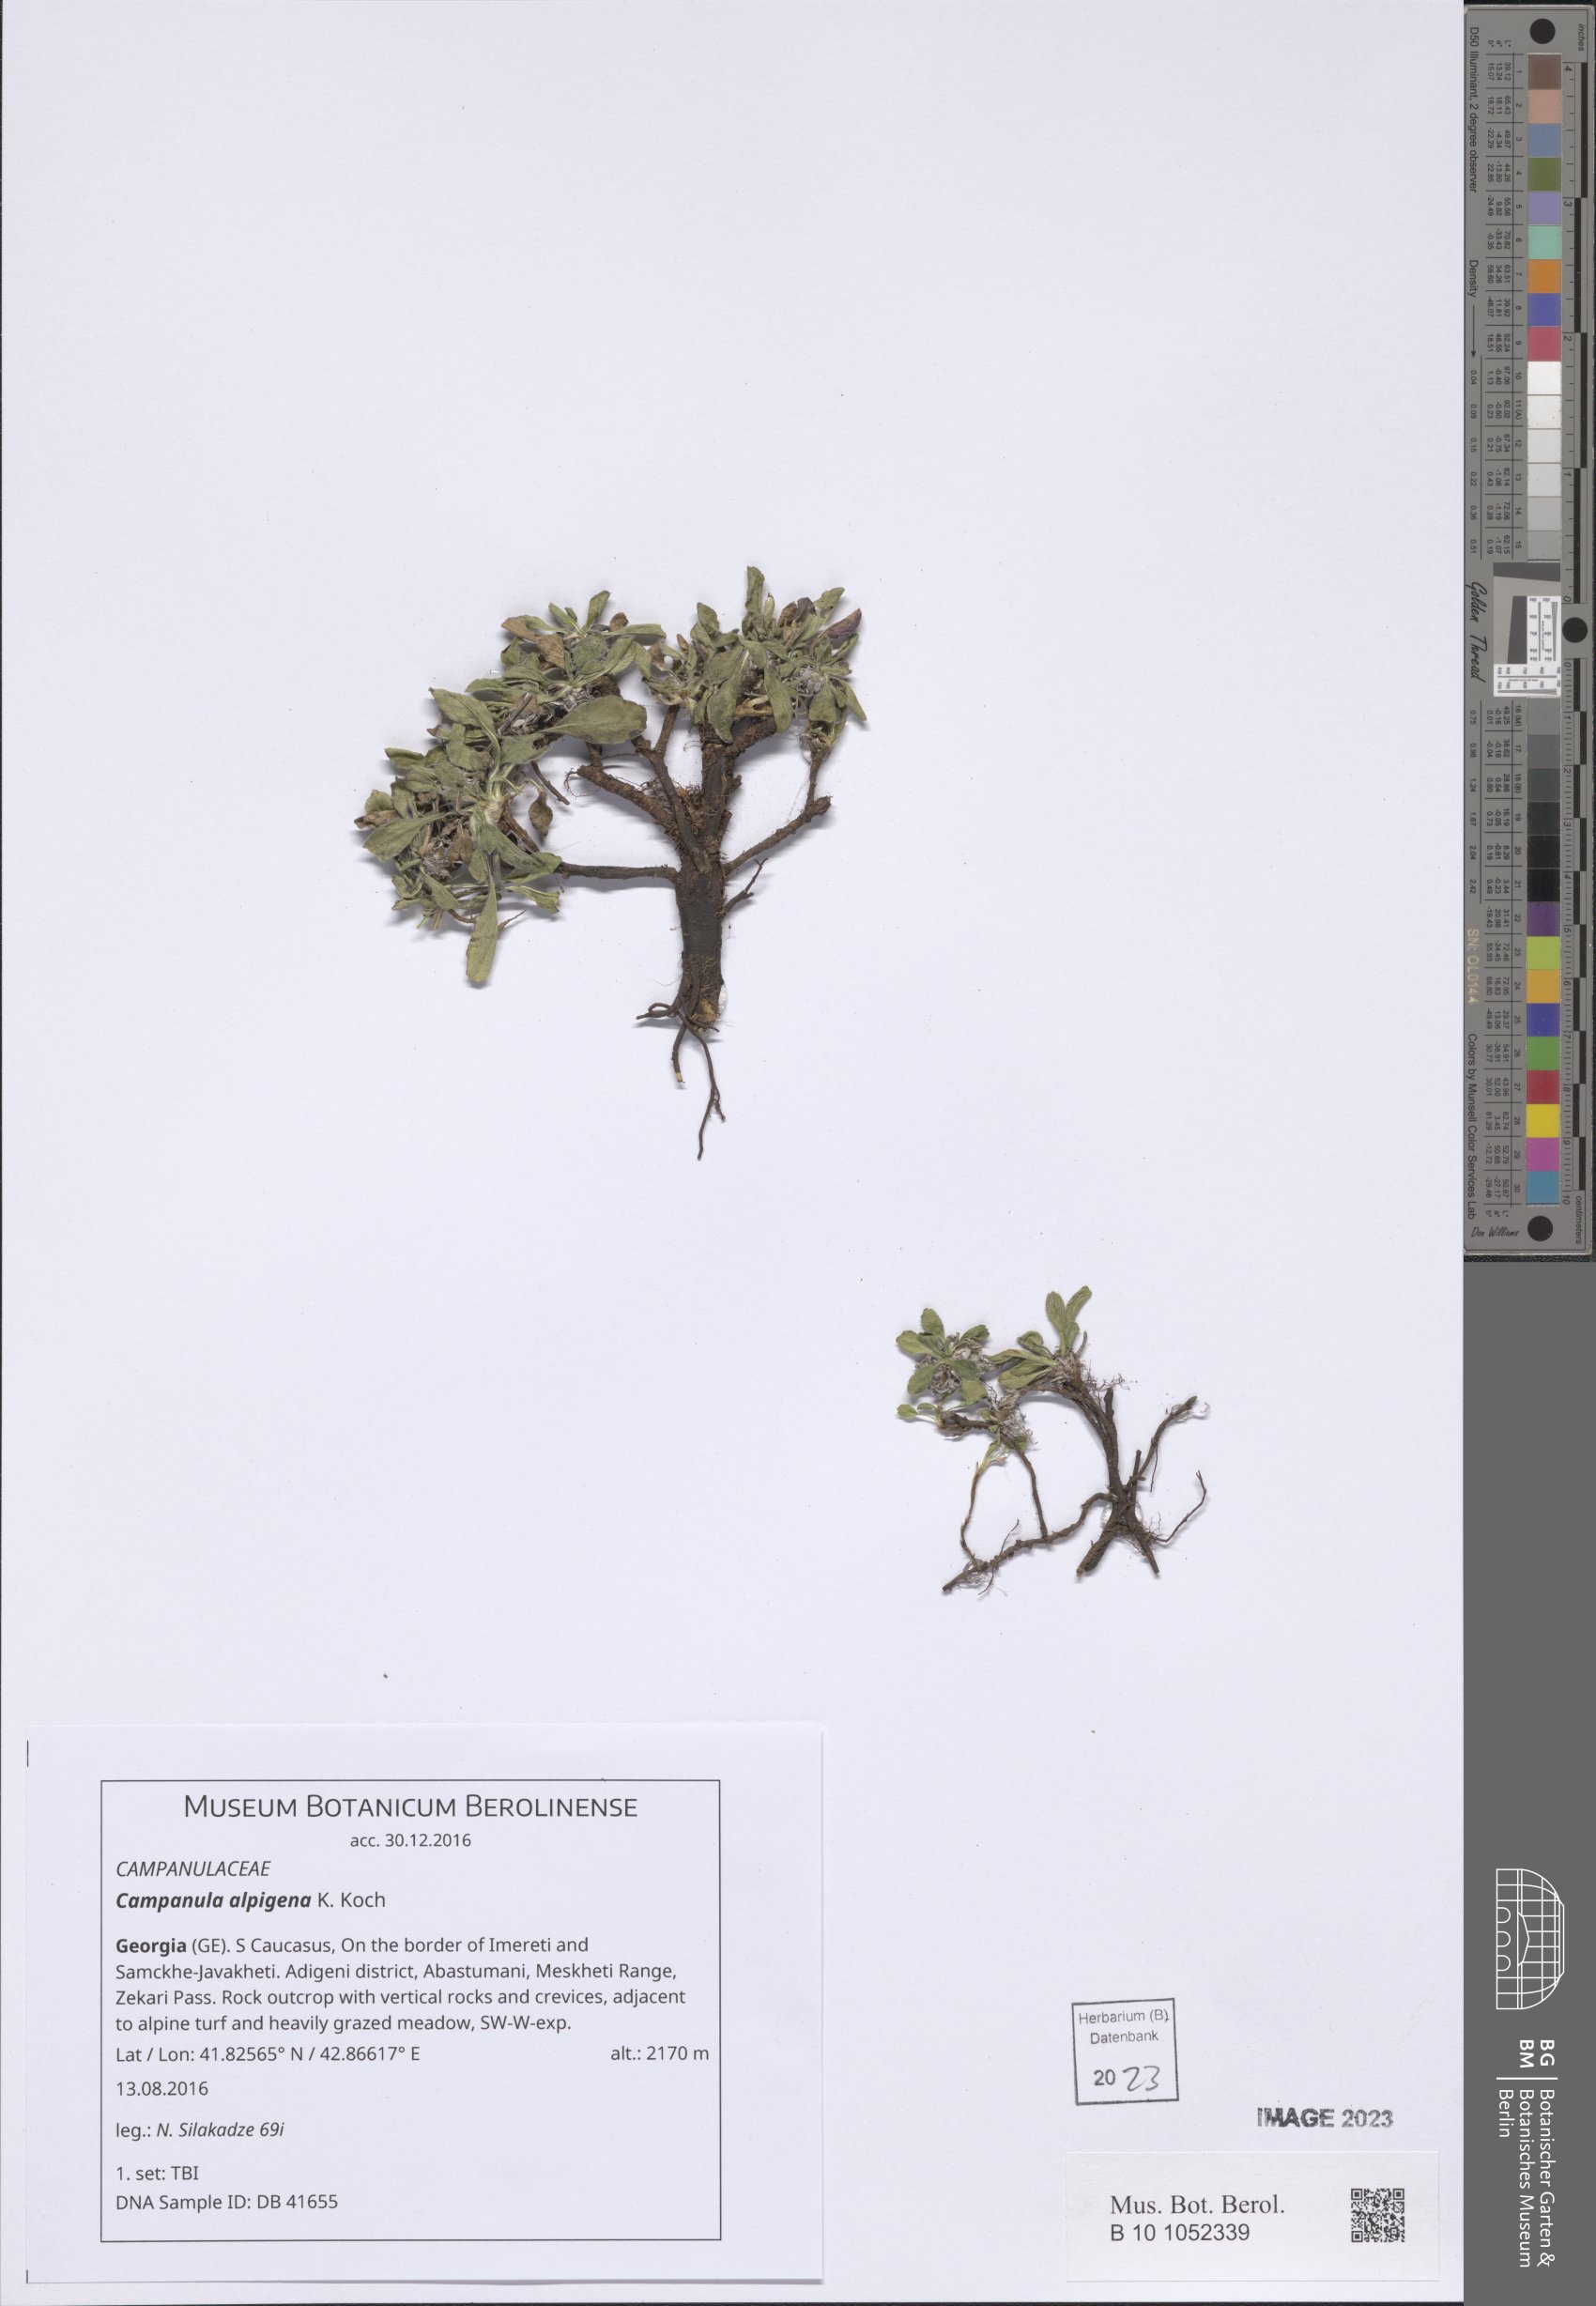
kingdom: Plantae
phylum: Tracheophyta
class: Magnoliopsida
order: Asterales
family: Campanulaceae
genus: Campanula
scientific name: Campanula saxifraga
